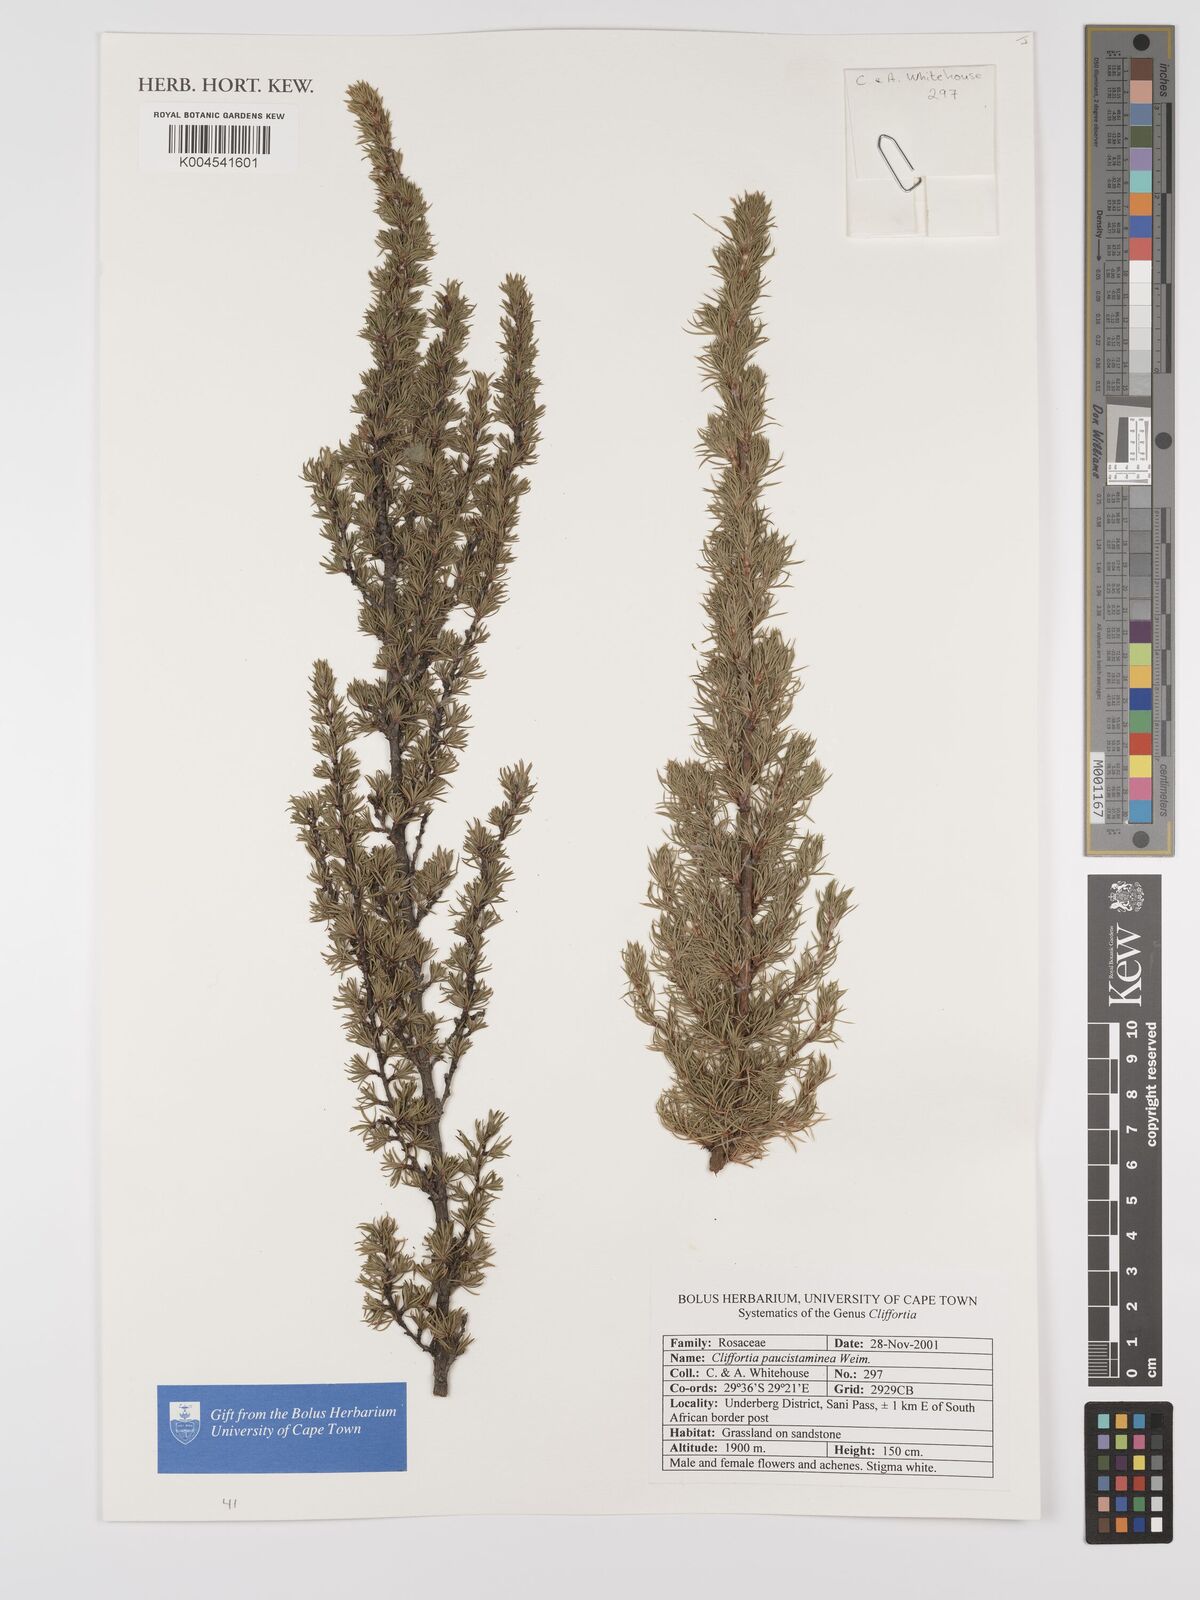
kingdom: Plantae
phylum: Tracheophyta
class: Magnoliopsida
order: Rosales
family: Rosaceae
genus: Cliffortia
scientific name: Cliffortia paucistaminea
